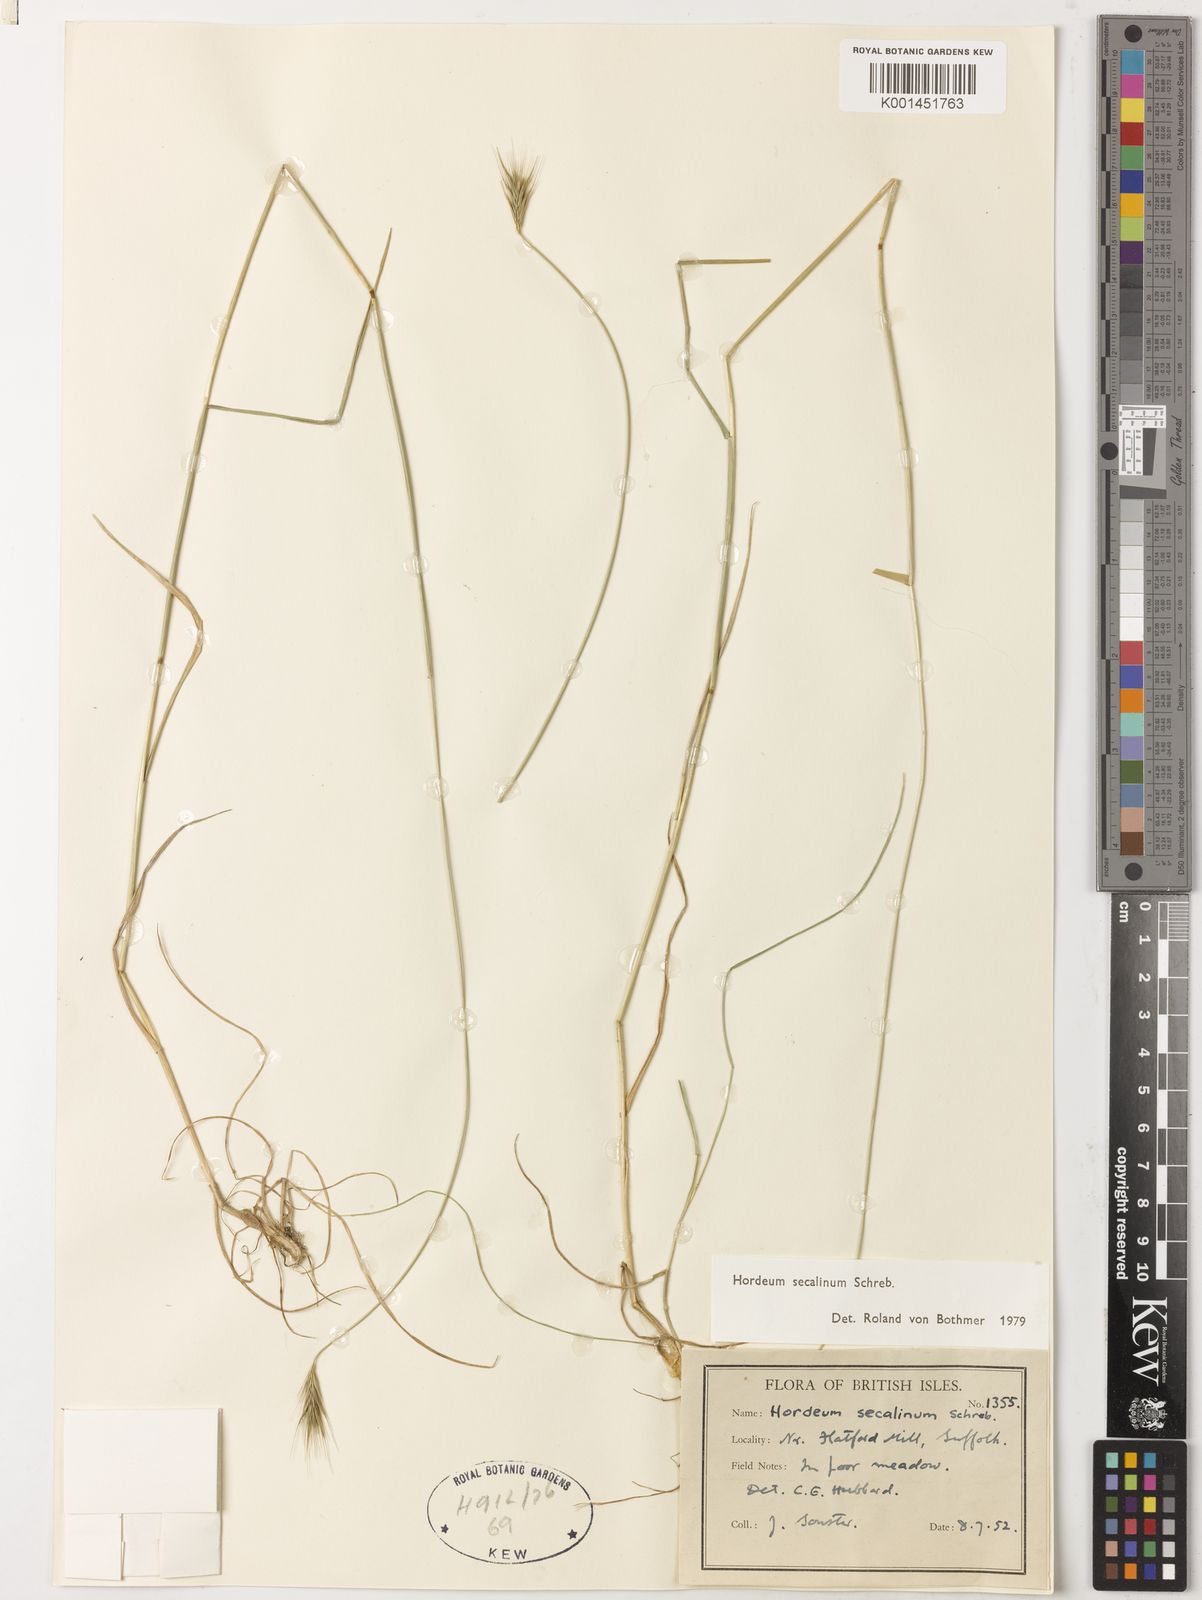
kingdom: Plantae
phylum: Tracheophyta
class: Liliopsida
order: Poales
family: Poaceae
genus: Hordeum
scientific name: Hordeum secalinum
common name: Meadow barley
